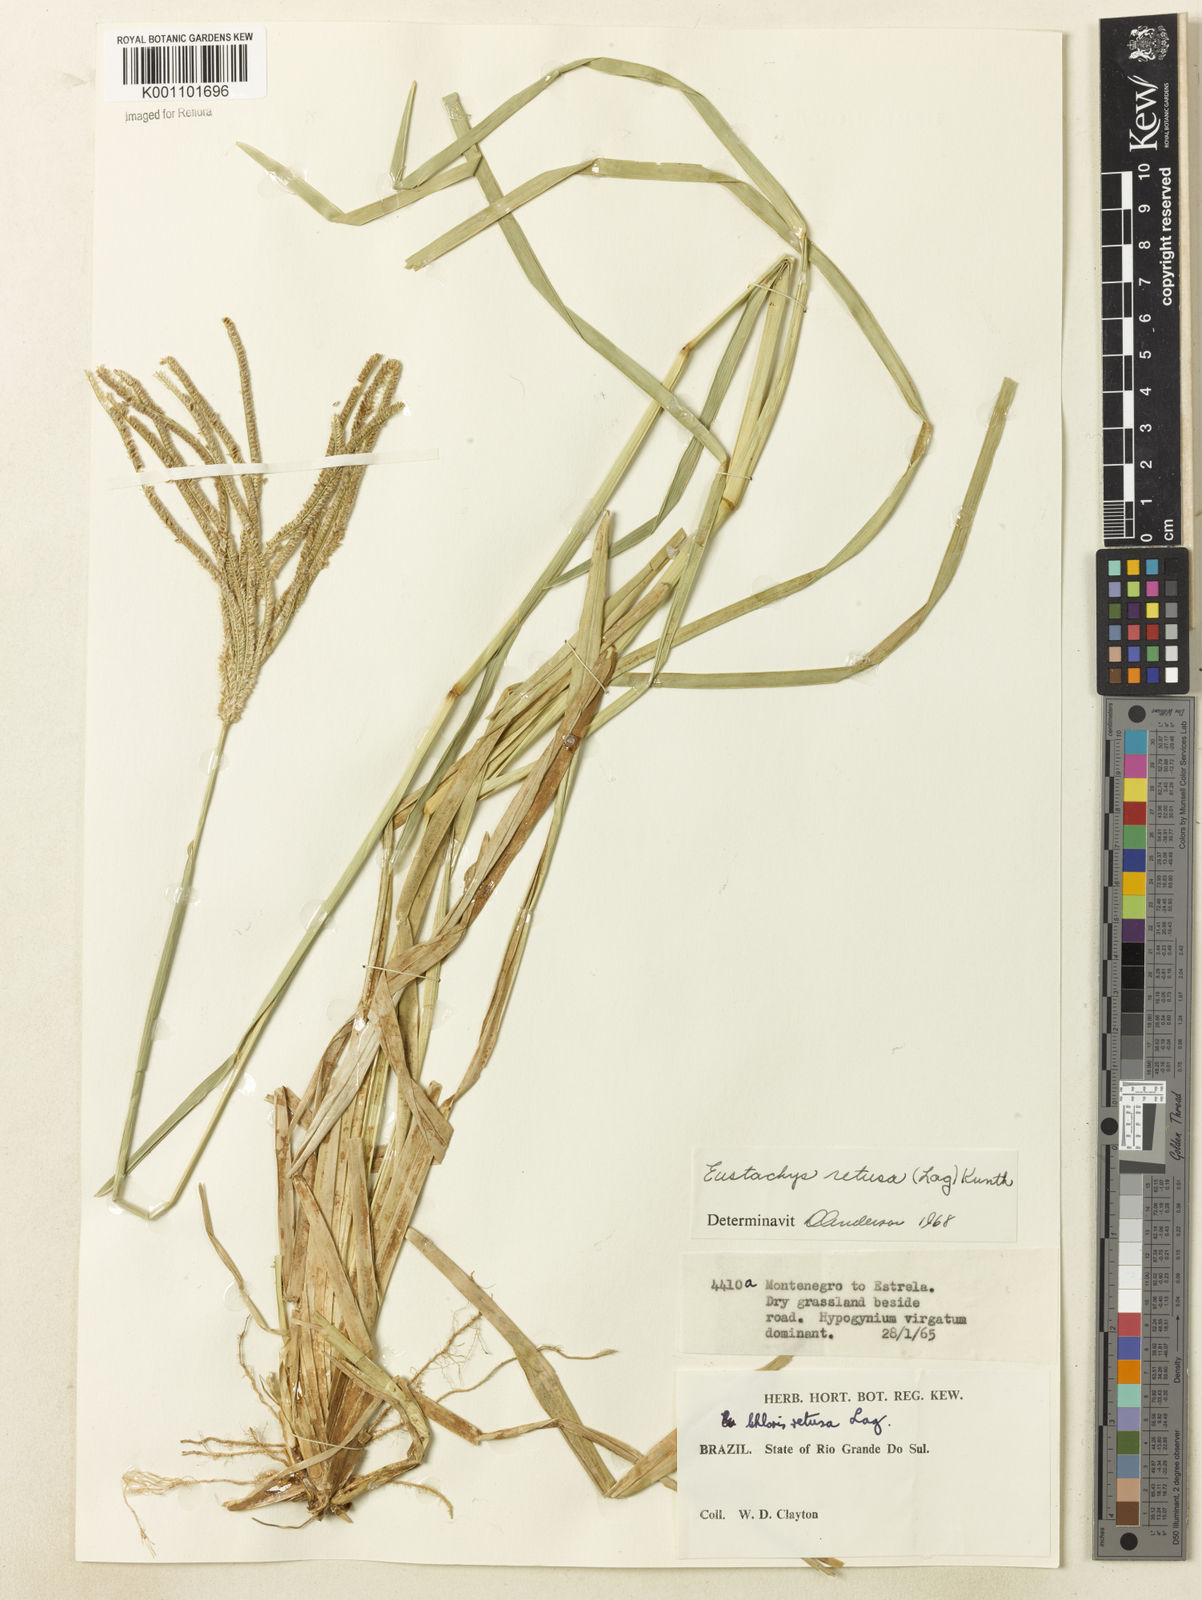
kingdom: Plantae
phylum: Tracheophyta
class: Liliopsida
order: Poales
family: Poaceae
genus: Eustachys
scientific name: Eustachys retusa
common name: Argentine fingergrass
